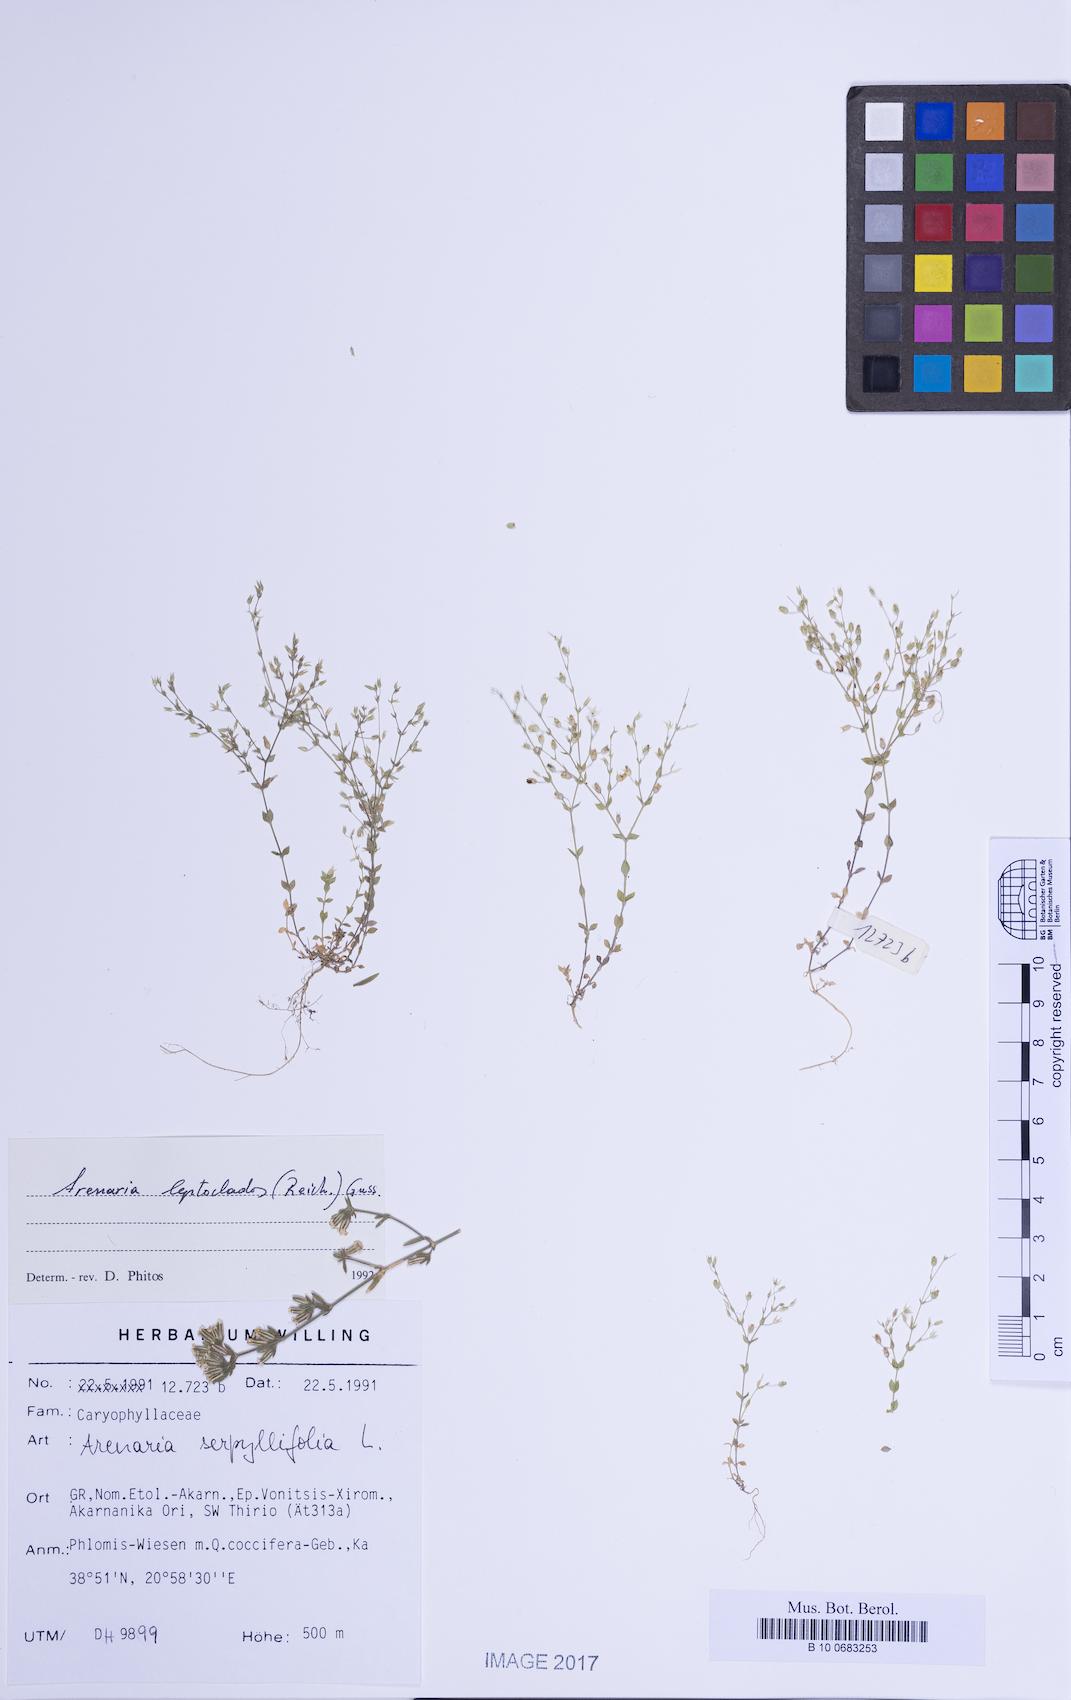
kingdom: Plantae
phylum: Tracheophyta
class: Magnoliopsida
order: Caryophyllales
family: Caryophyllaceae
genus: Arenaria
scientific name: Arenaria leptoclados
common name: Thyme-leaved sandwort
